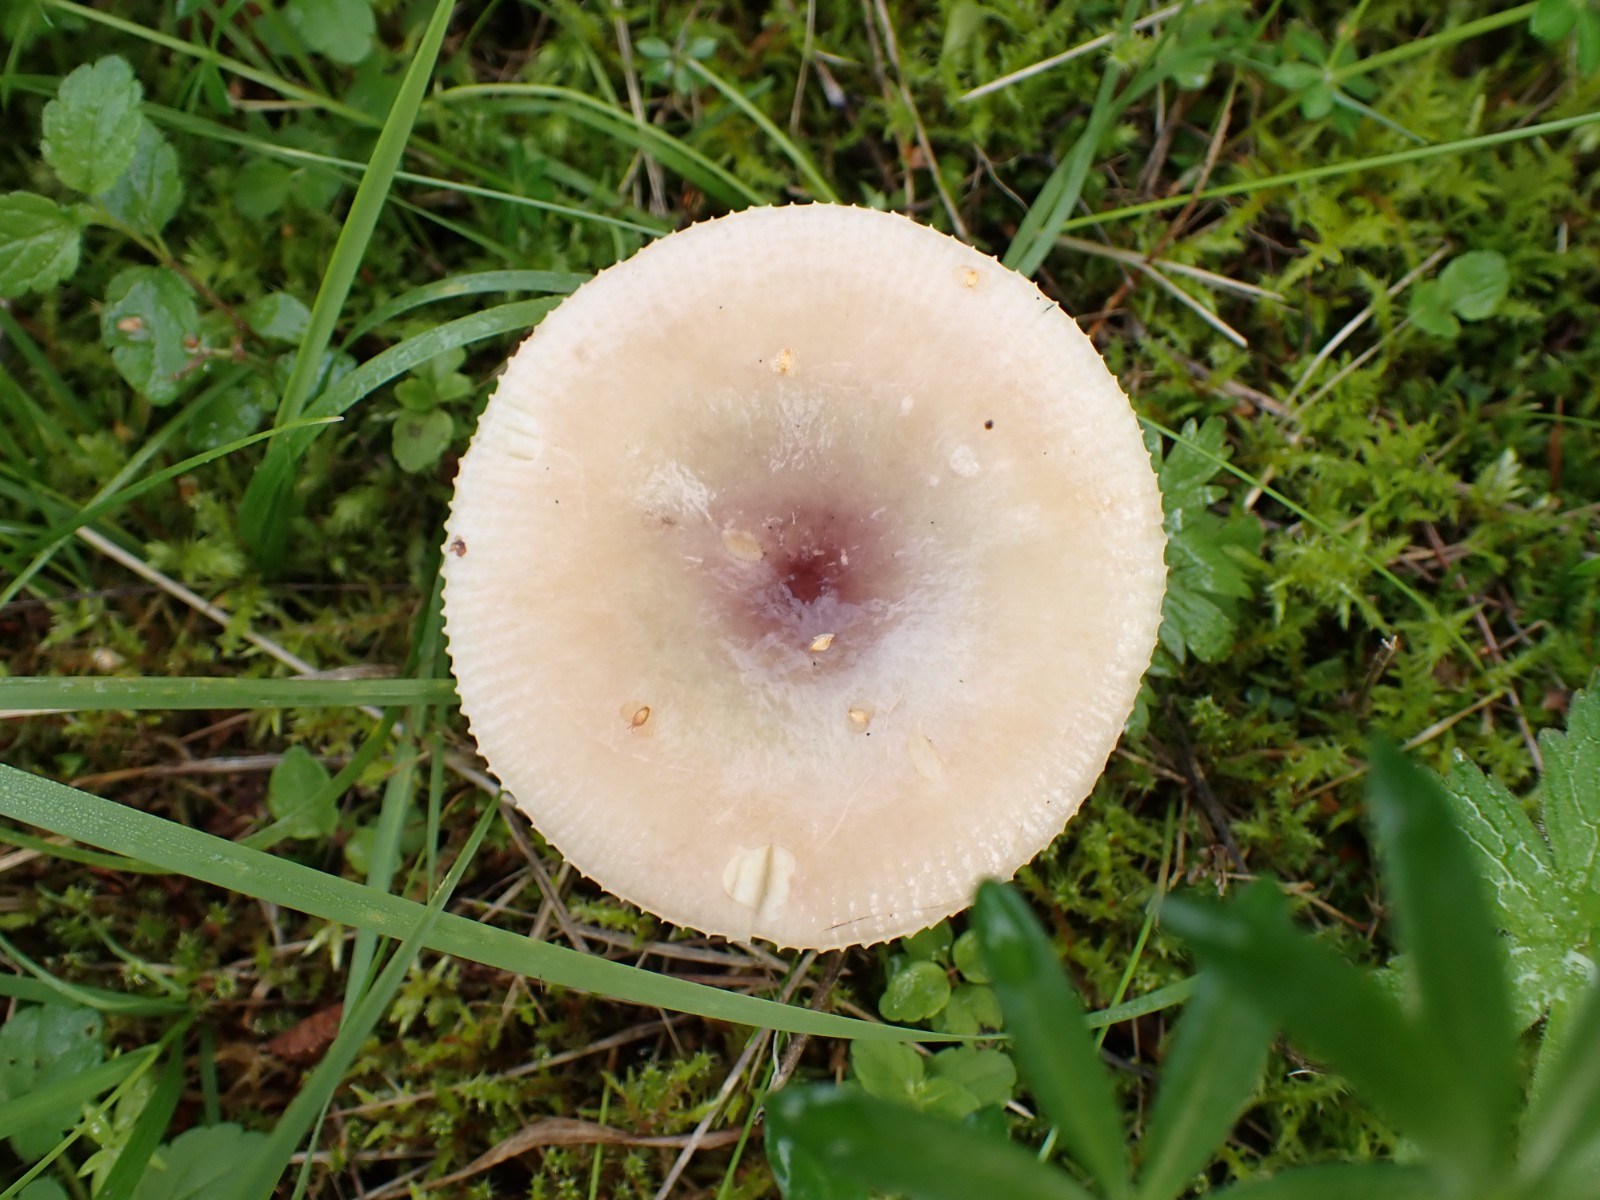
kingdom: Fungi
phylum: Basidiomycota
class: Agaricomycetes
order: Russulales
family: Russulaceae
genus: Russula
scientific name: Russula versicolor
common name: foranderlig skørhat
